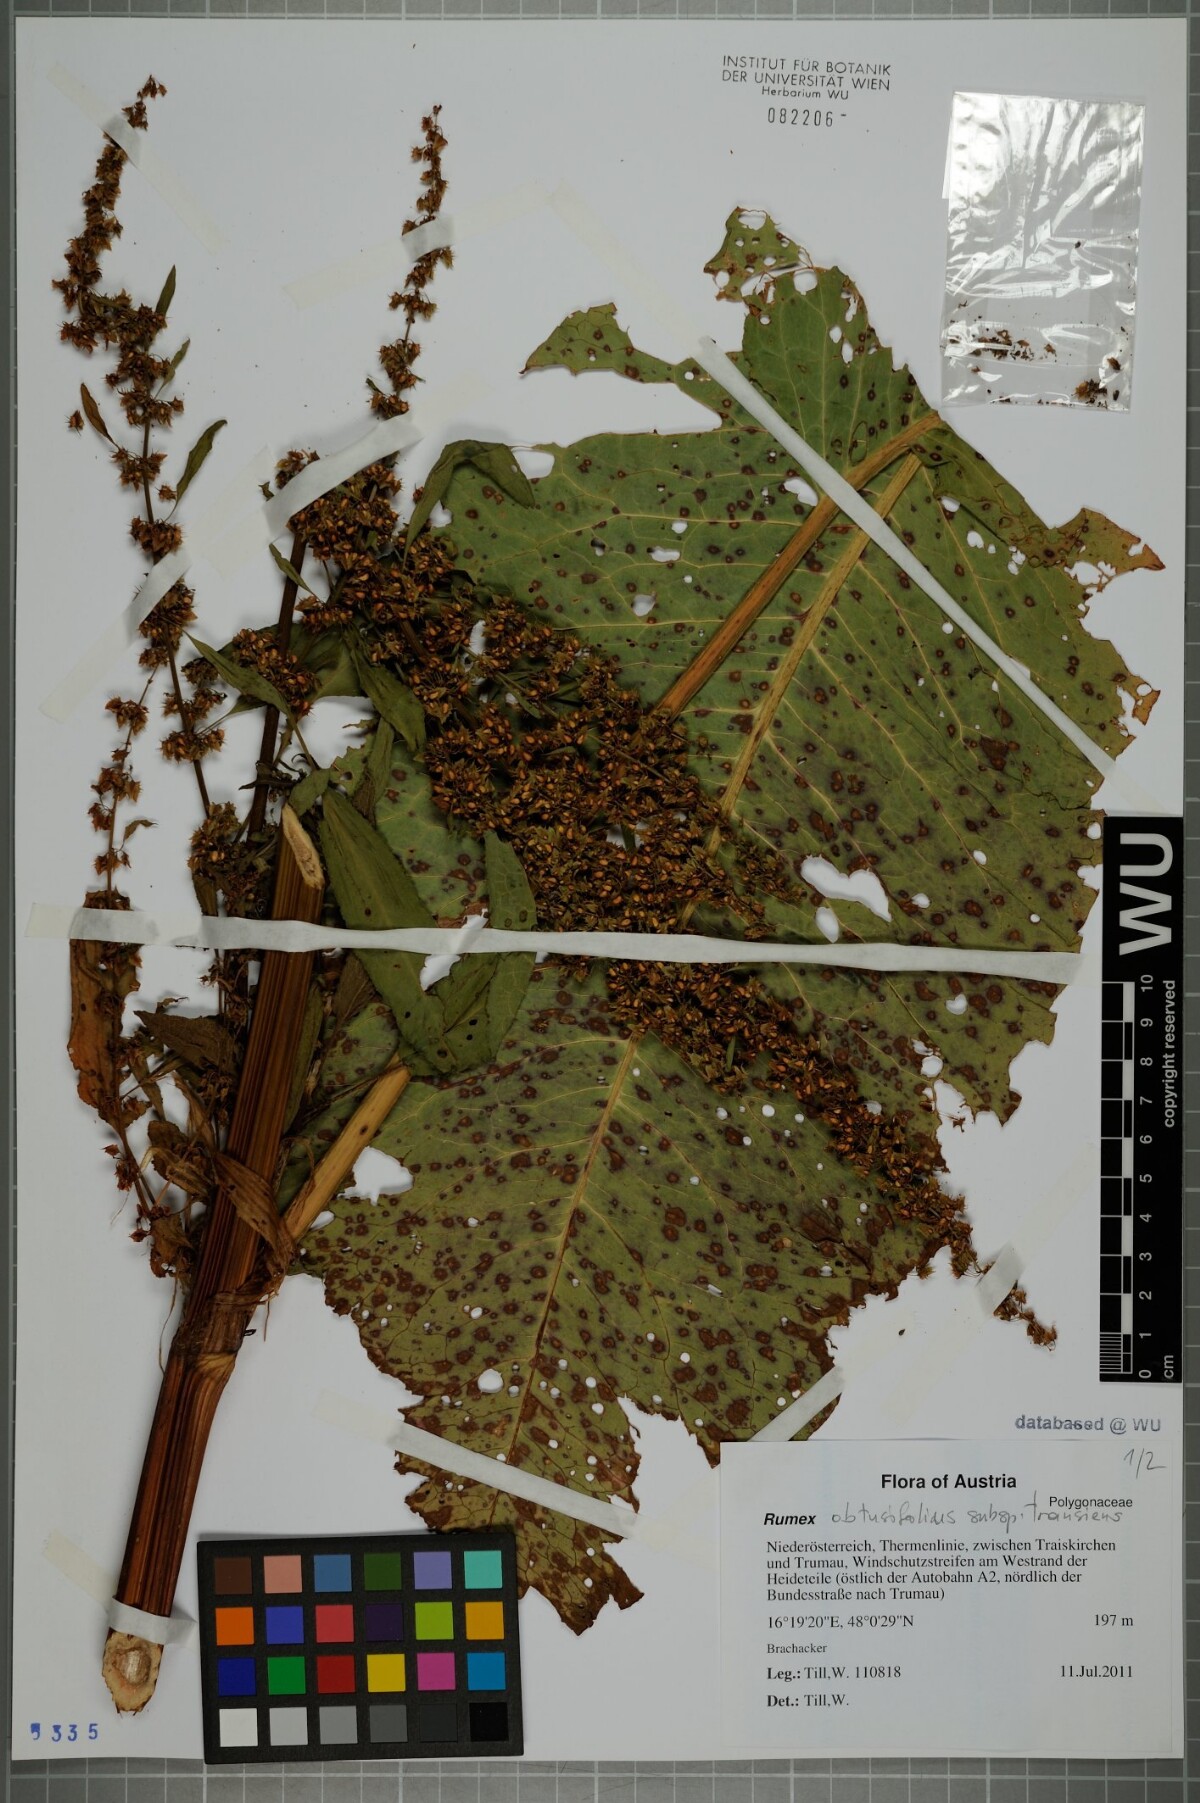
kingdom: Plantae
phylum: Tracheophyta
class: Magnoliopsida
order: Caryophyllales
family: Polygonaceae
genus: Rumex
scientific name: Rumex obtusifolius
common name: Bitter dock
